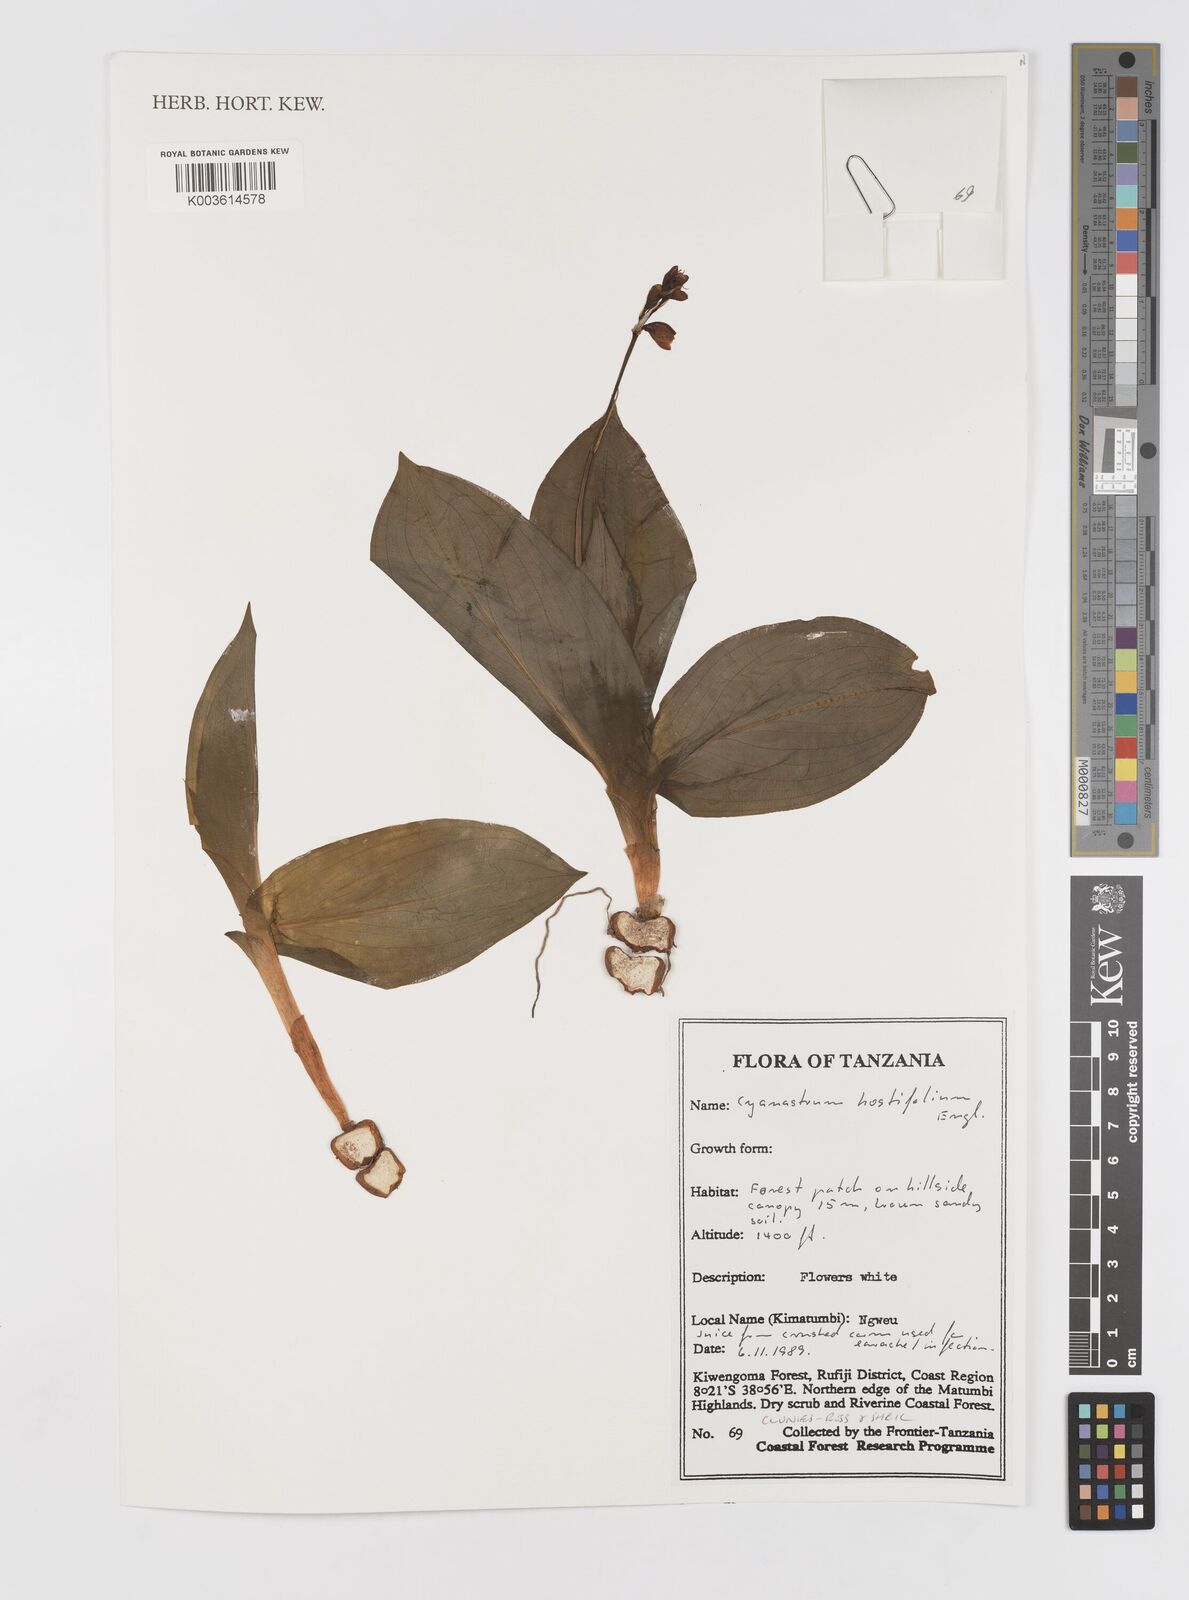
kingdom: Plantae
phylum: Tracheophyta
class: Liliopsida
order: Asparagales
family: Tecophilaeaceae
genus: Kabuyea
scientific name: Kabuyea hostifolia
